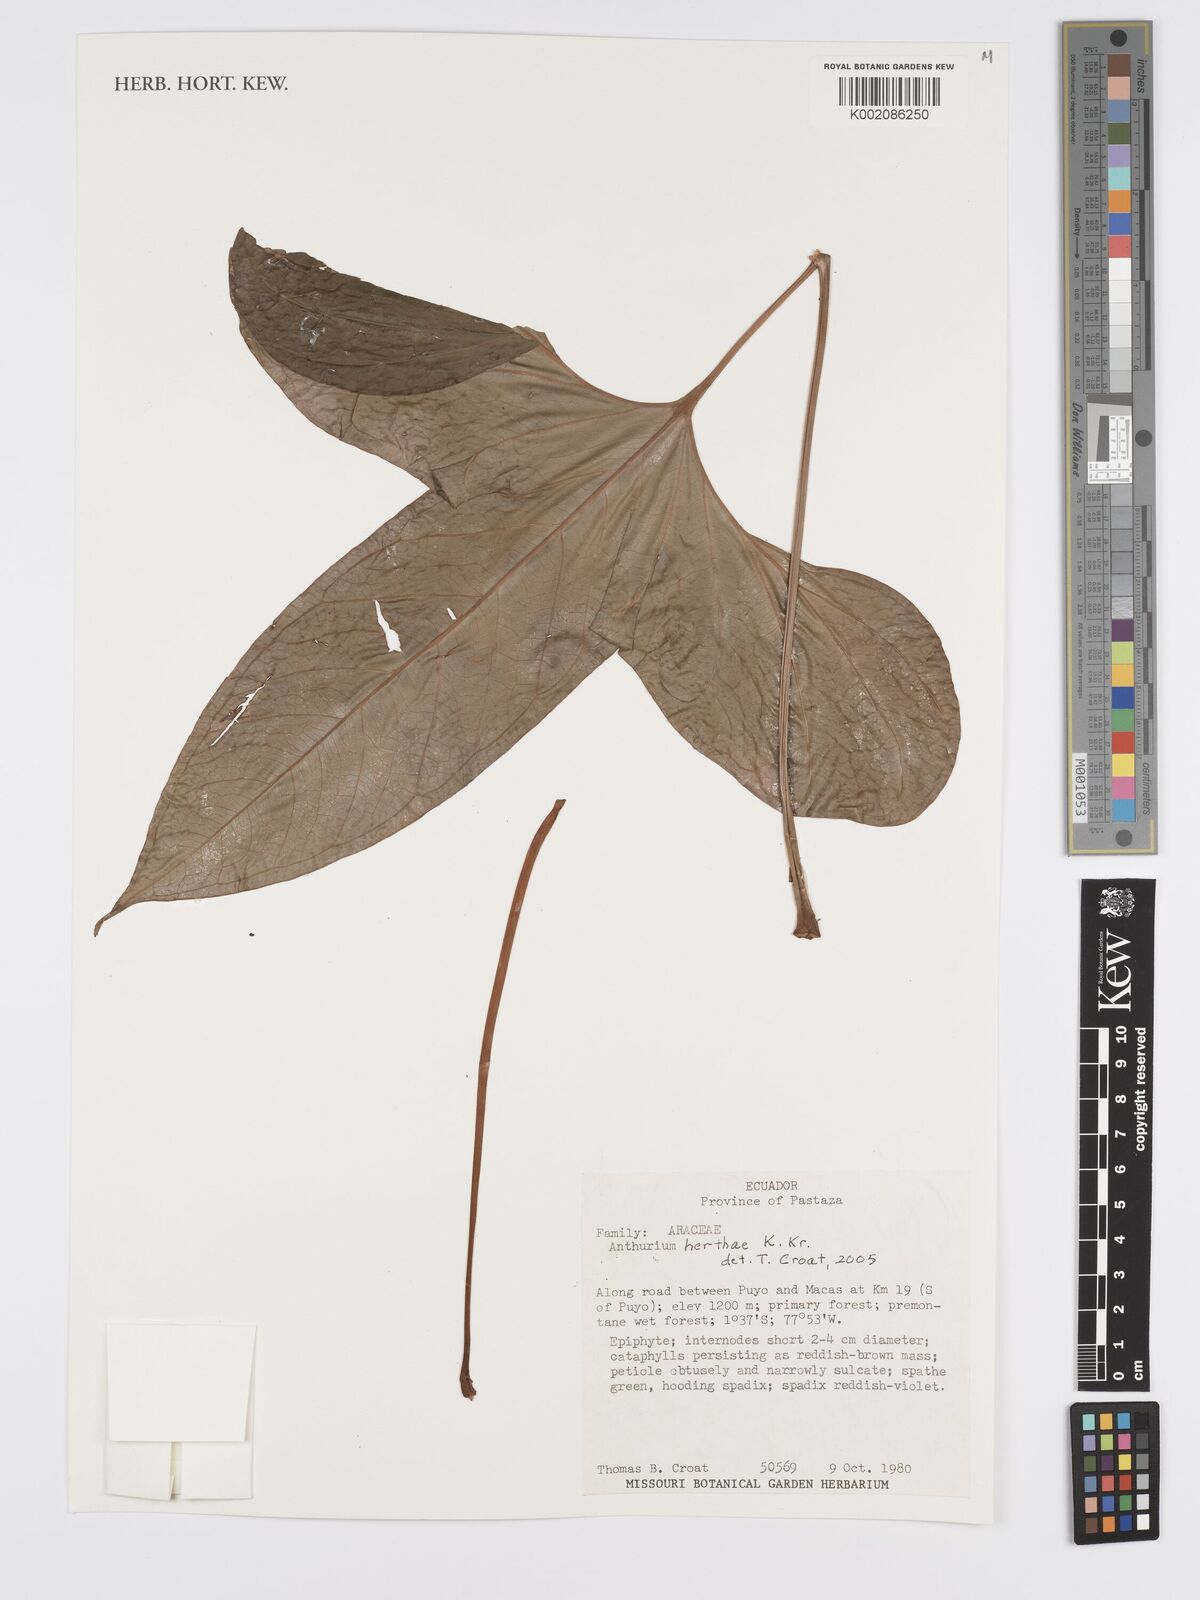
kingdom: Plantae
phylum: Tracheophyta
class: Liliopsida
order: Alismatales
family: Araceae
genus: Anthurium
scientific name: Anthurium herthae
